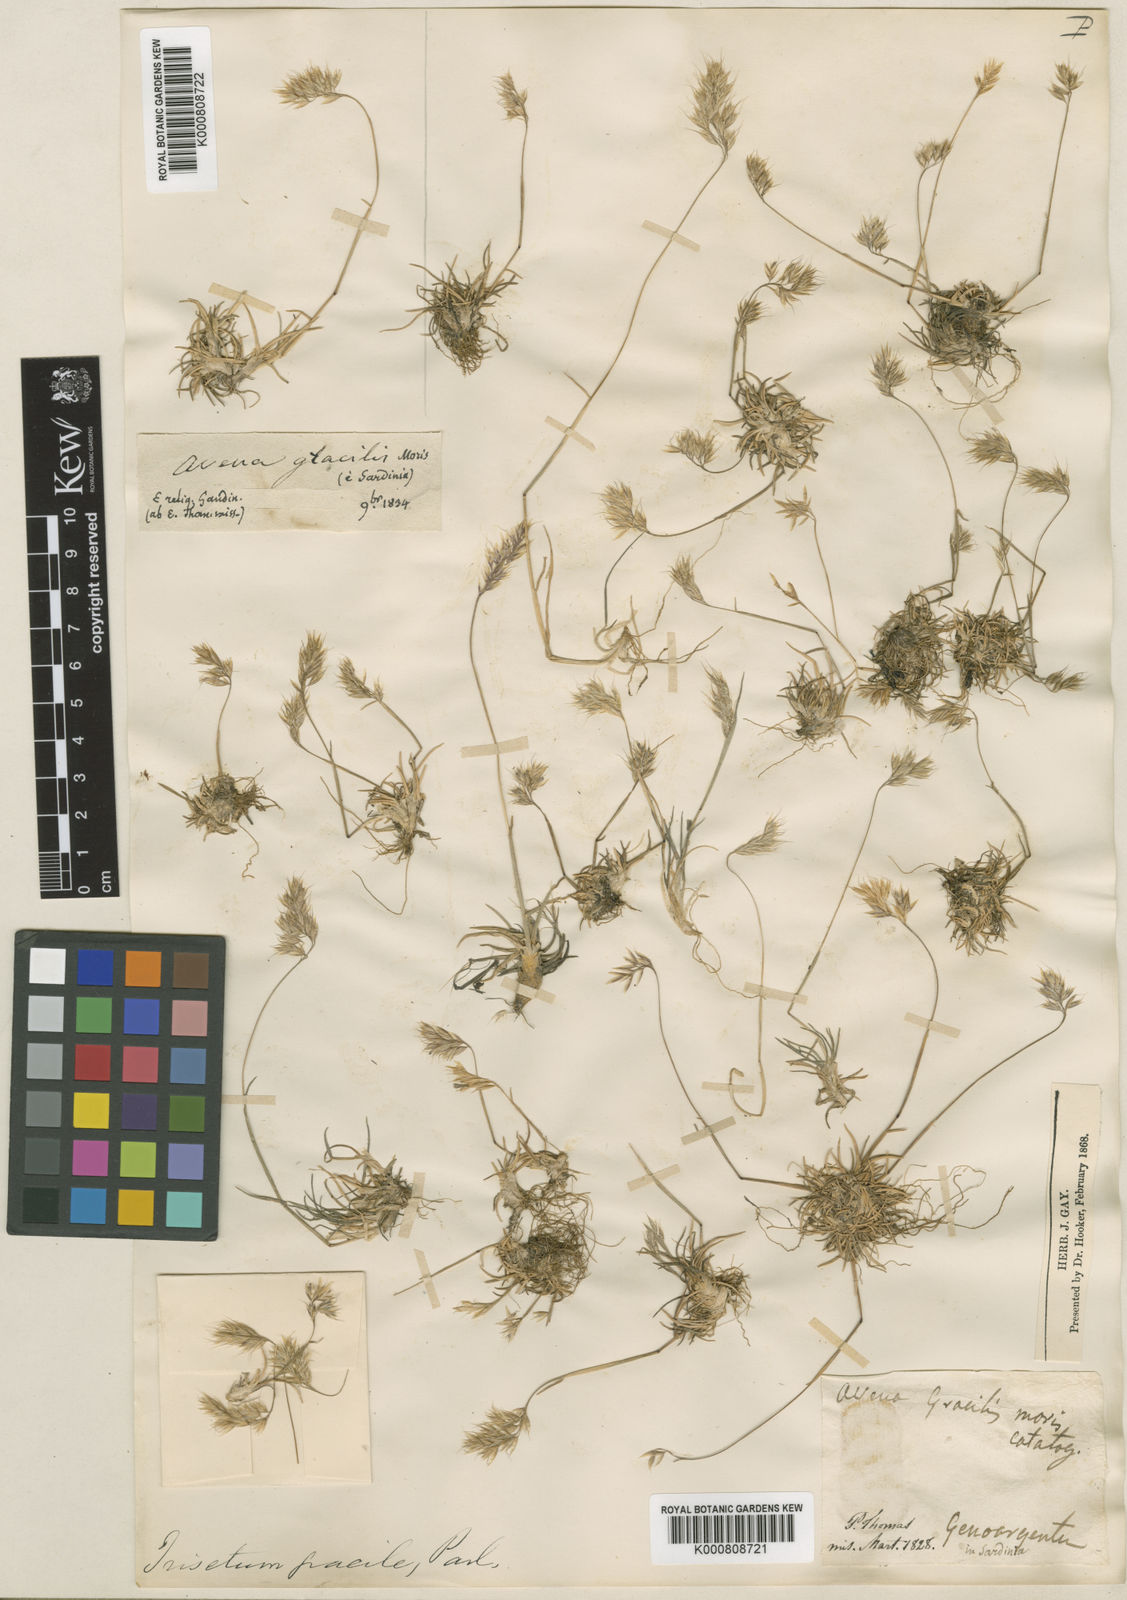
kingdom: Plantae
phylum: Tracheophyta
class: Liliopsida
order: Poales
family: Poaceae
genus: Acrospelion
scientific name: Acrospelion glaciale
